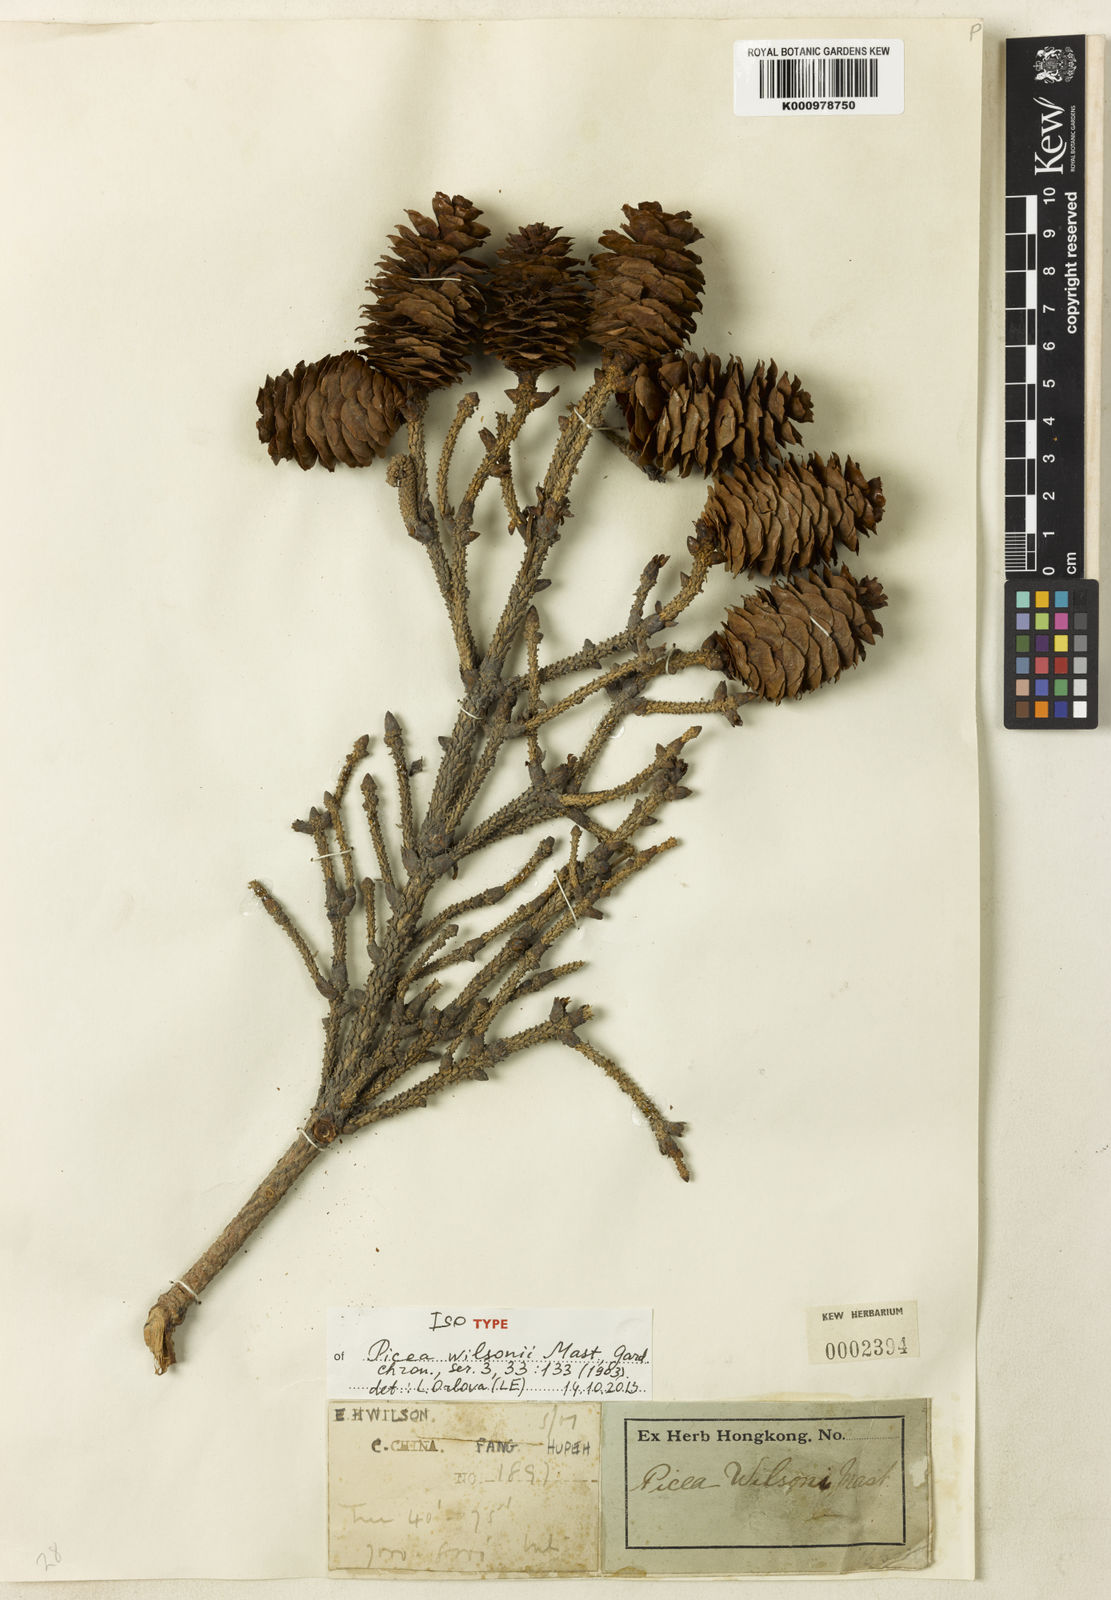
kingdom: Plantae
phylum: Tracheophyta
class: Pinopsida
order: Pinales
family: Pinaceae
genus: Picea
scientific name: Picea wilsonii
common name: Wilson spruce
